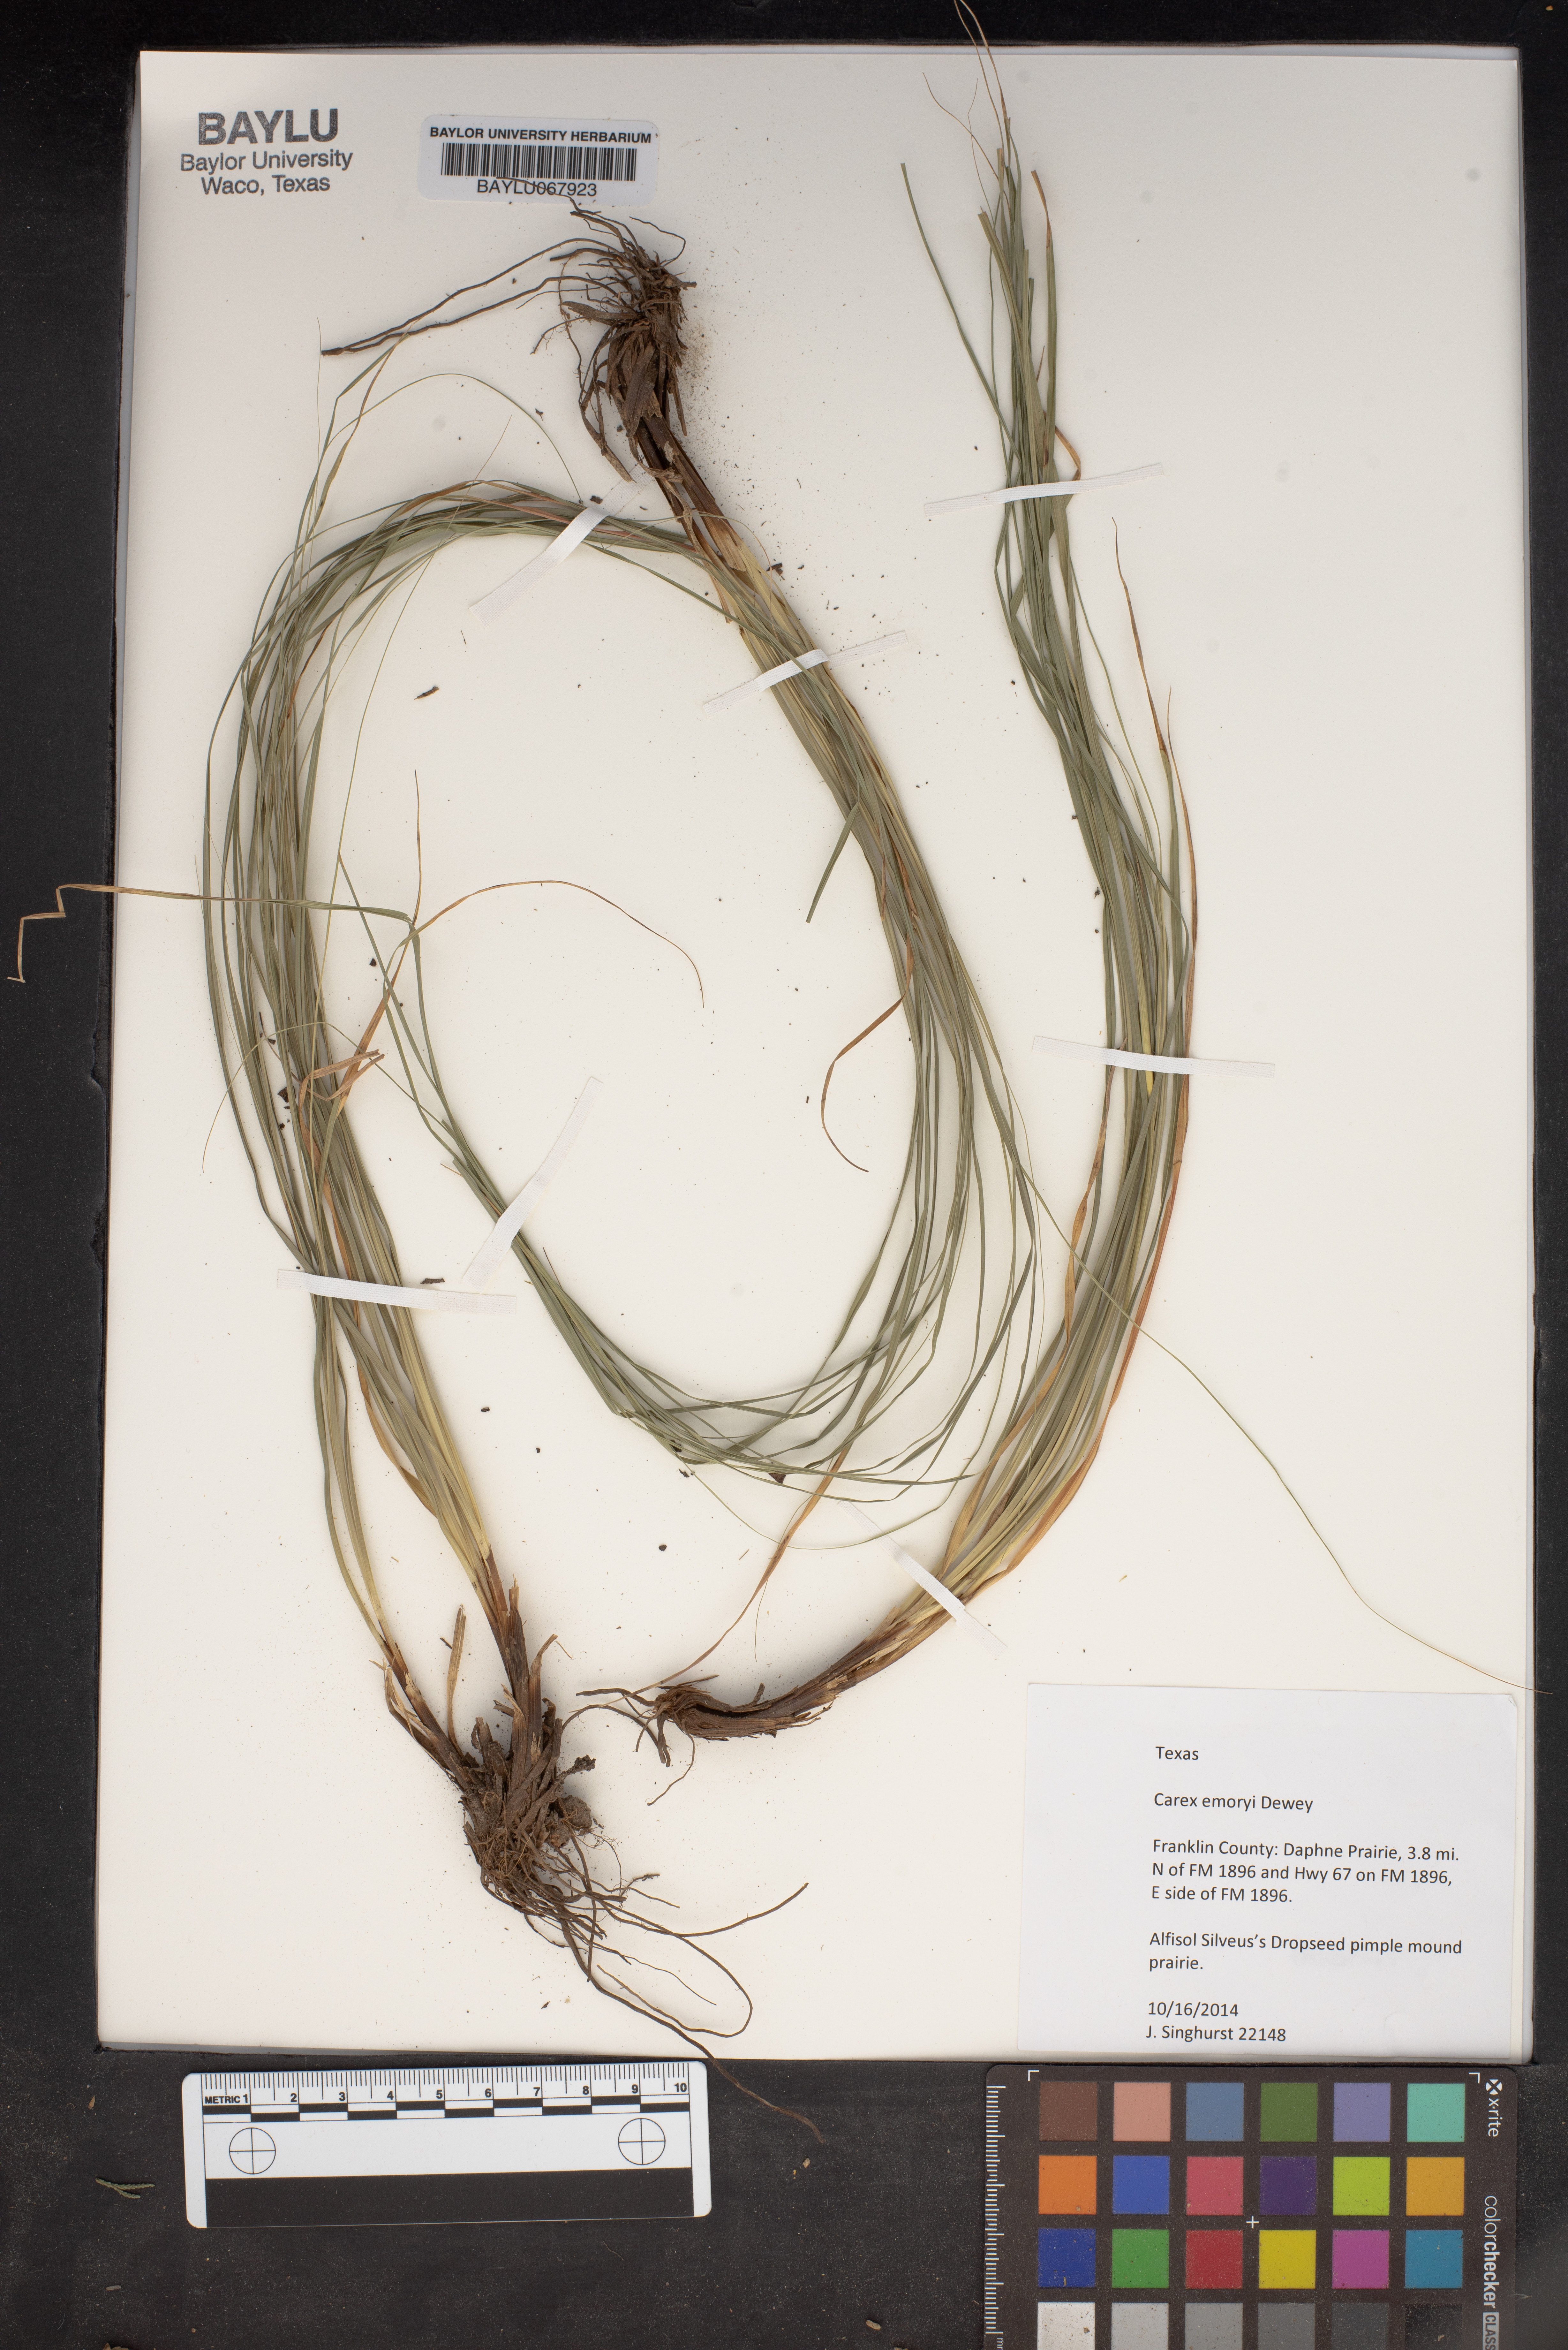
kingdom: Plantae
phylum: Tracheophyta
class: Liliopsida
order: Poales
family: Cyperaceae
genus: Carex
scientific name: Carex emoryi
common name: Emory's sedge
